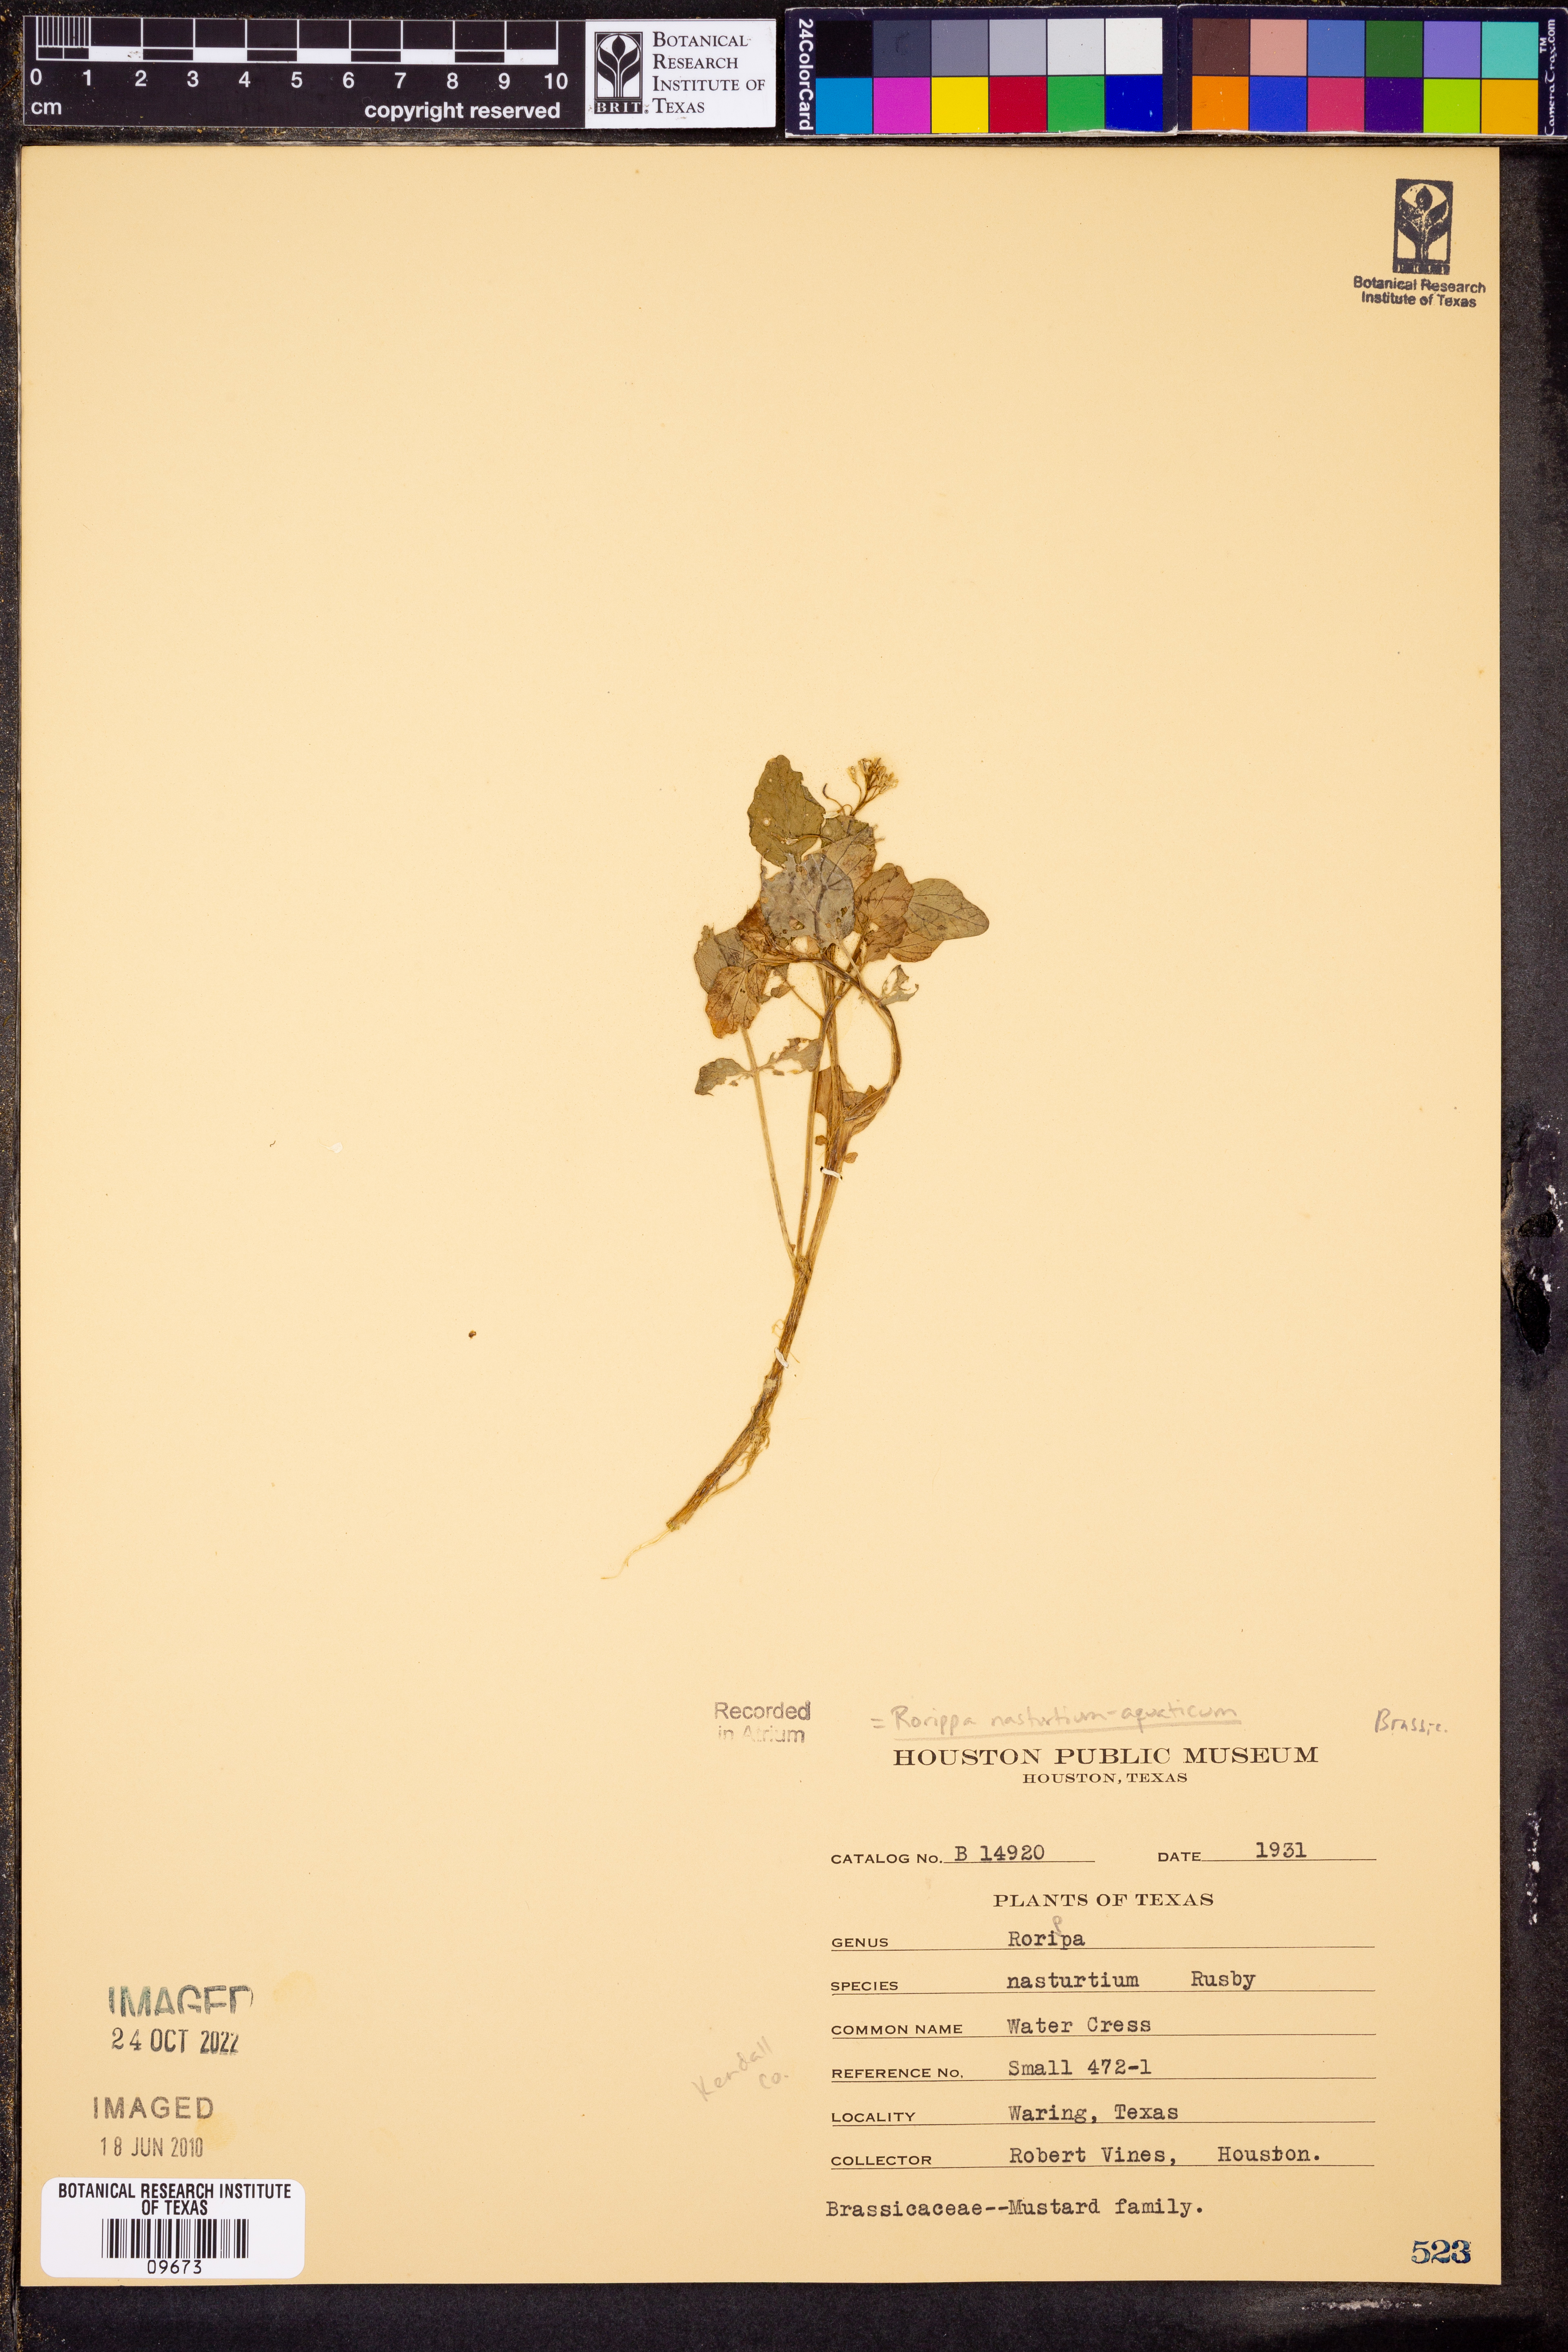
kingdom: Plantae
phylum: Tracheophyta
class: Magnoliopsida
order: Brassicales
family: Brassicaceae
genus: Nasturtium
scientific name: Nasturtium officinale
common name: Watercress
